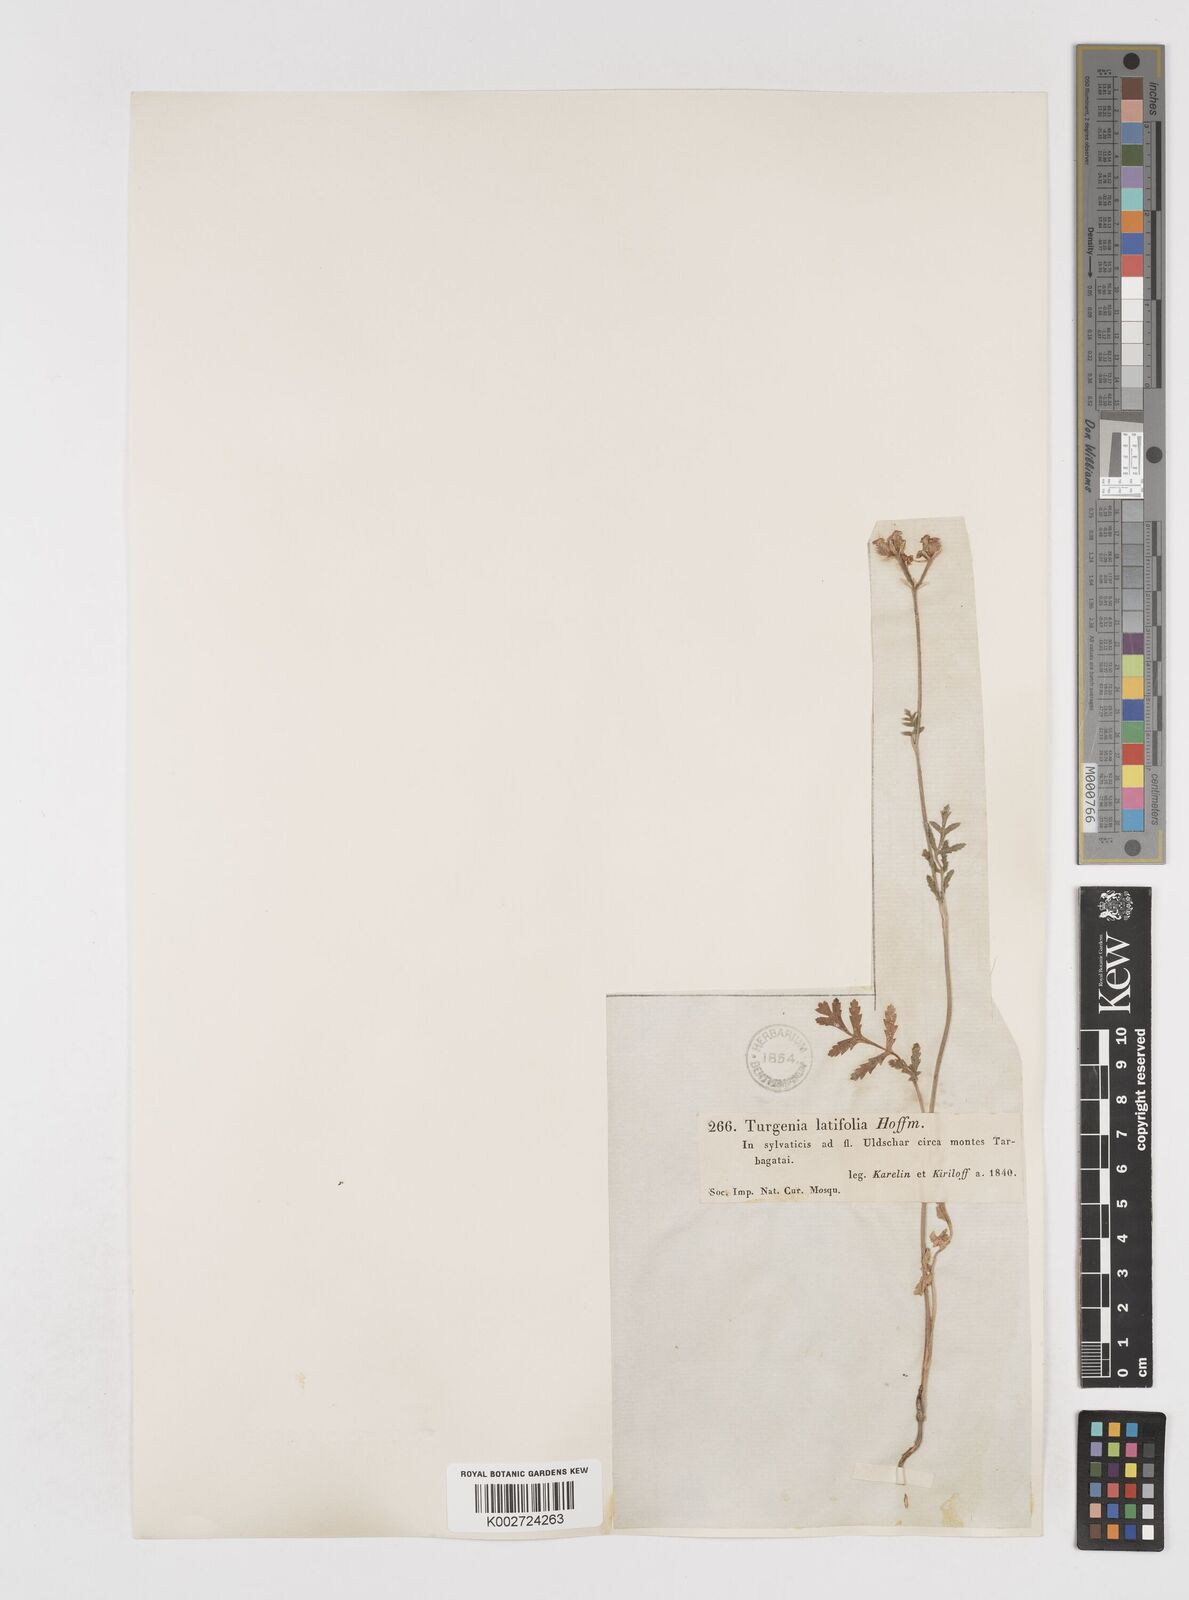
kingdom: Plantae
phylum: Tracheophyta
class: Magnoliopsida
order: Apiales
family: Apiaceae
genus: Turgenia
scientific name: Turgenia latifolia
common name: Greater bur-parsley
